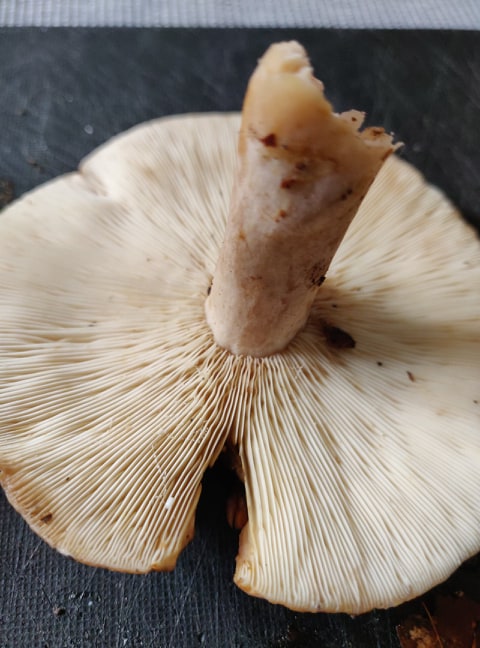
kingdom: Fungi
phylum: Basidiomycota
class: Agaricomycetes
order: Russulales
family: Russulaceae
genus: Lactarius
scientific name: Lactarius fluens
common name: lysrandet mælkehat
